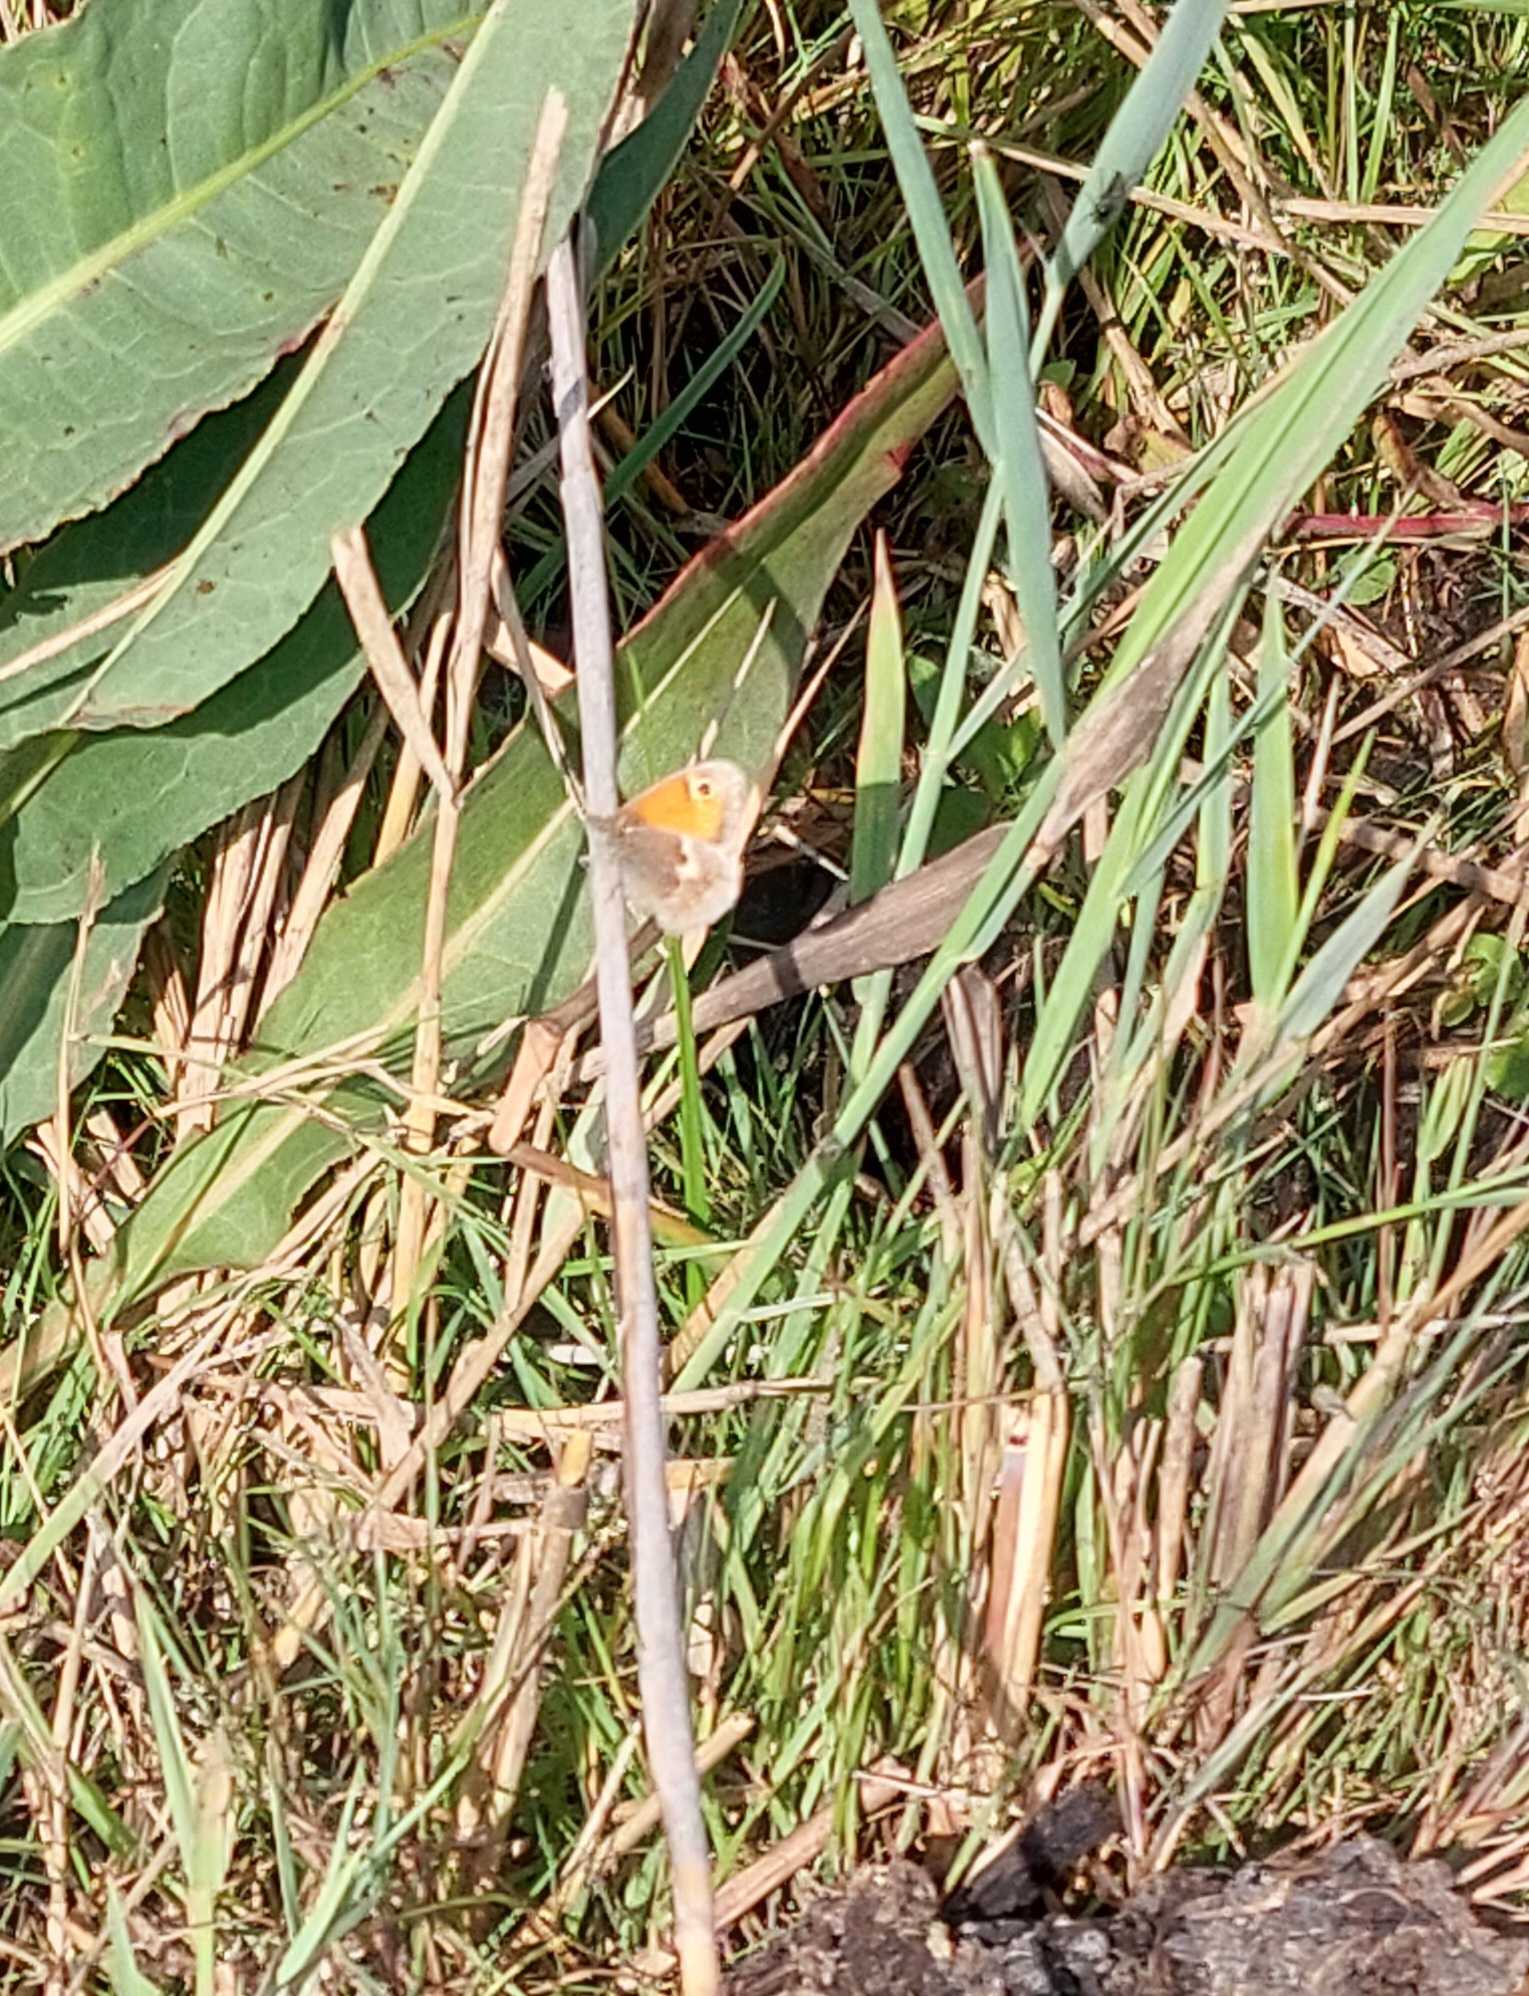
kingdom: Animalia
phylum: Arthropoda
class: Insecta
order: Lepidoptera
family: Nymphalidae
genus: Coenonympha
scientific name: Coenonympha pamphilus
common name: Okkergul randøje
